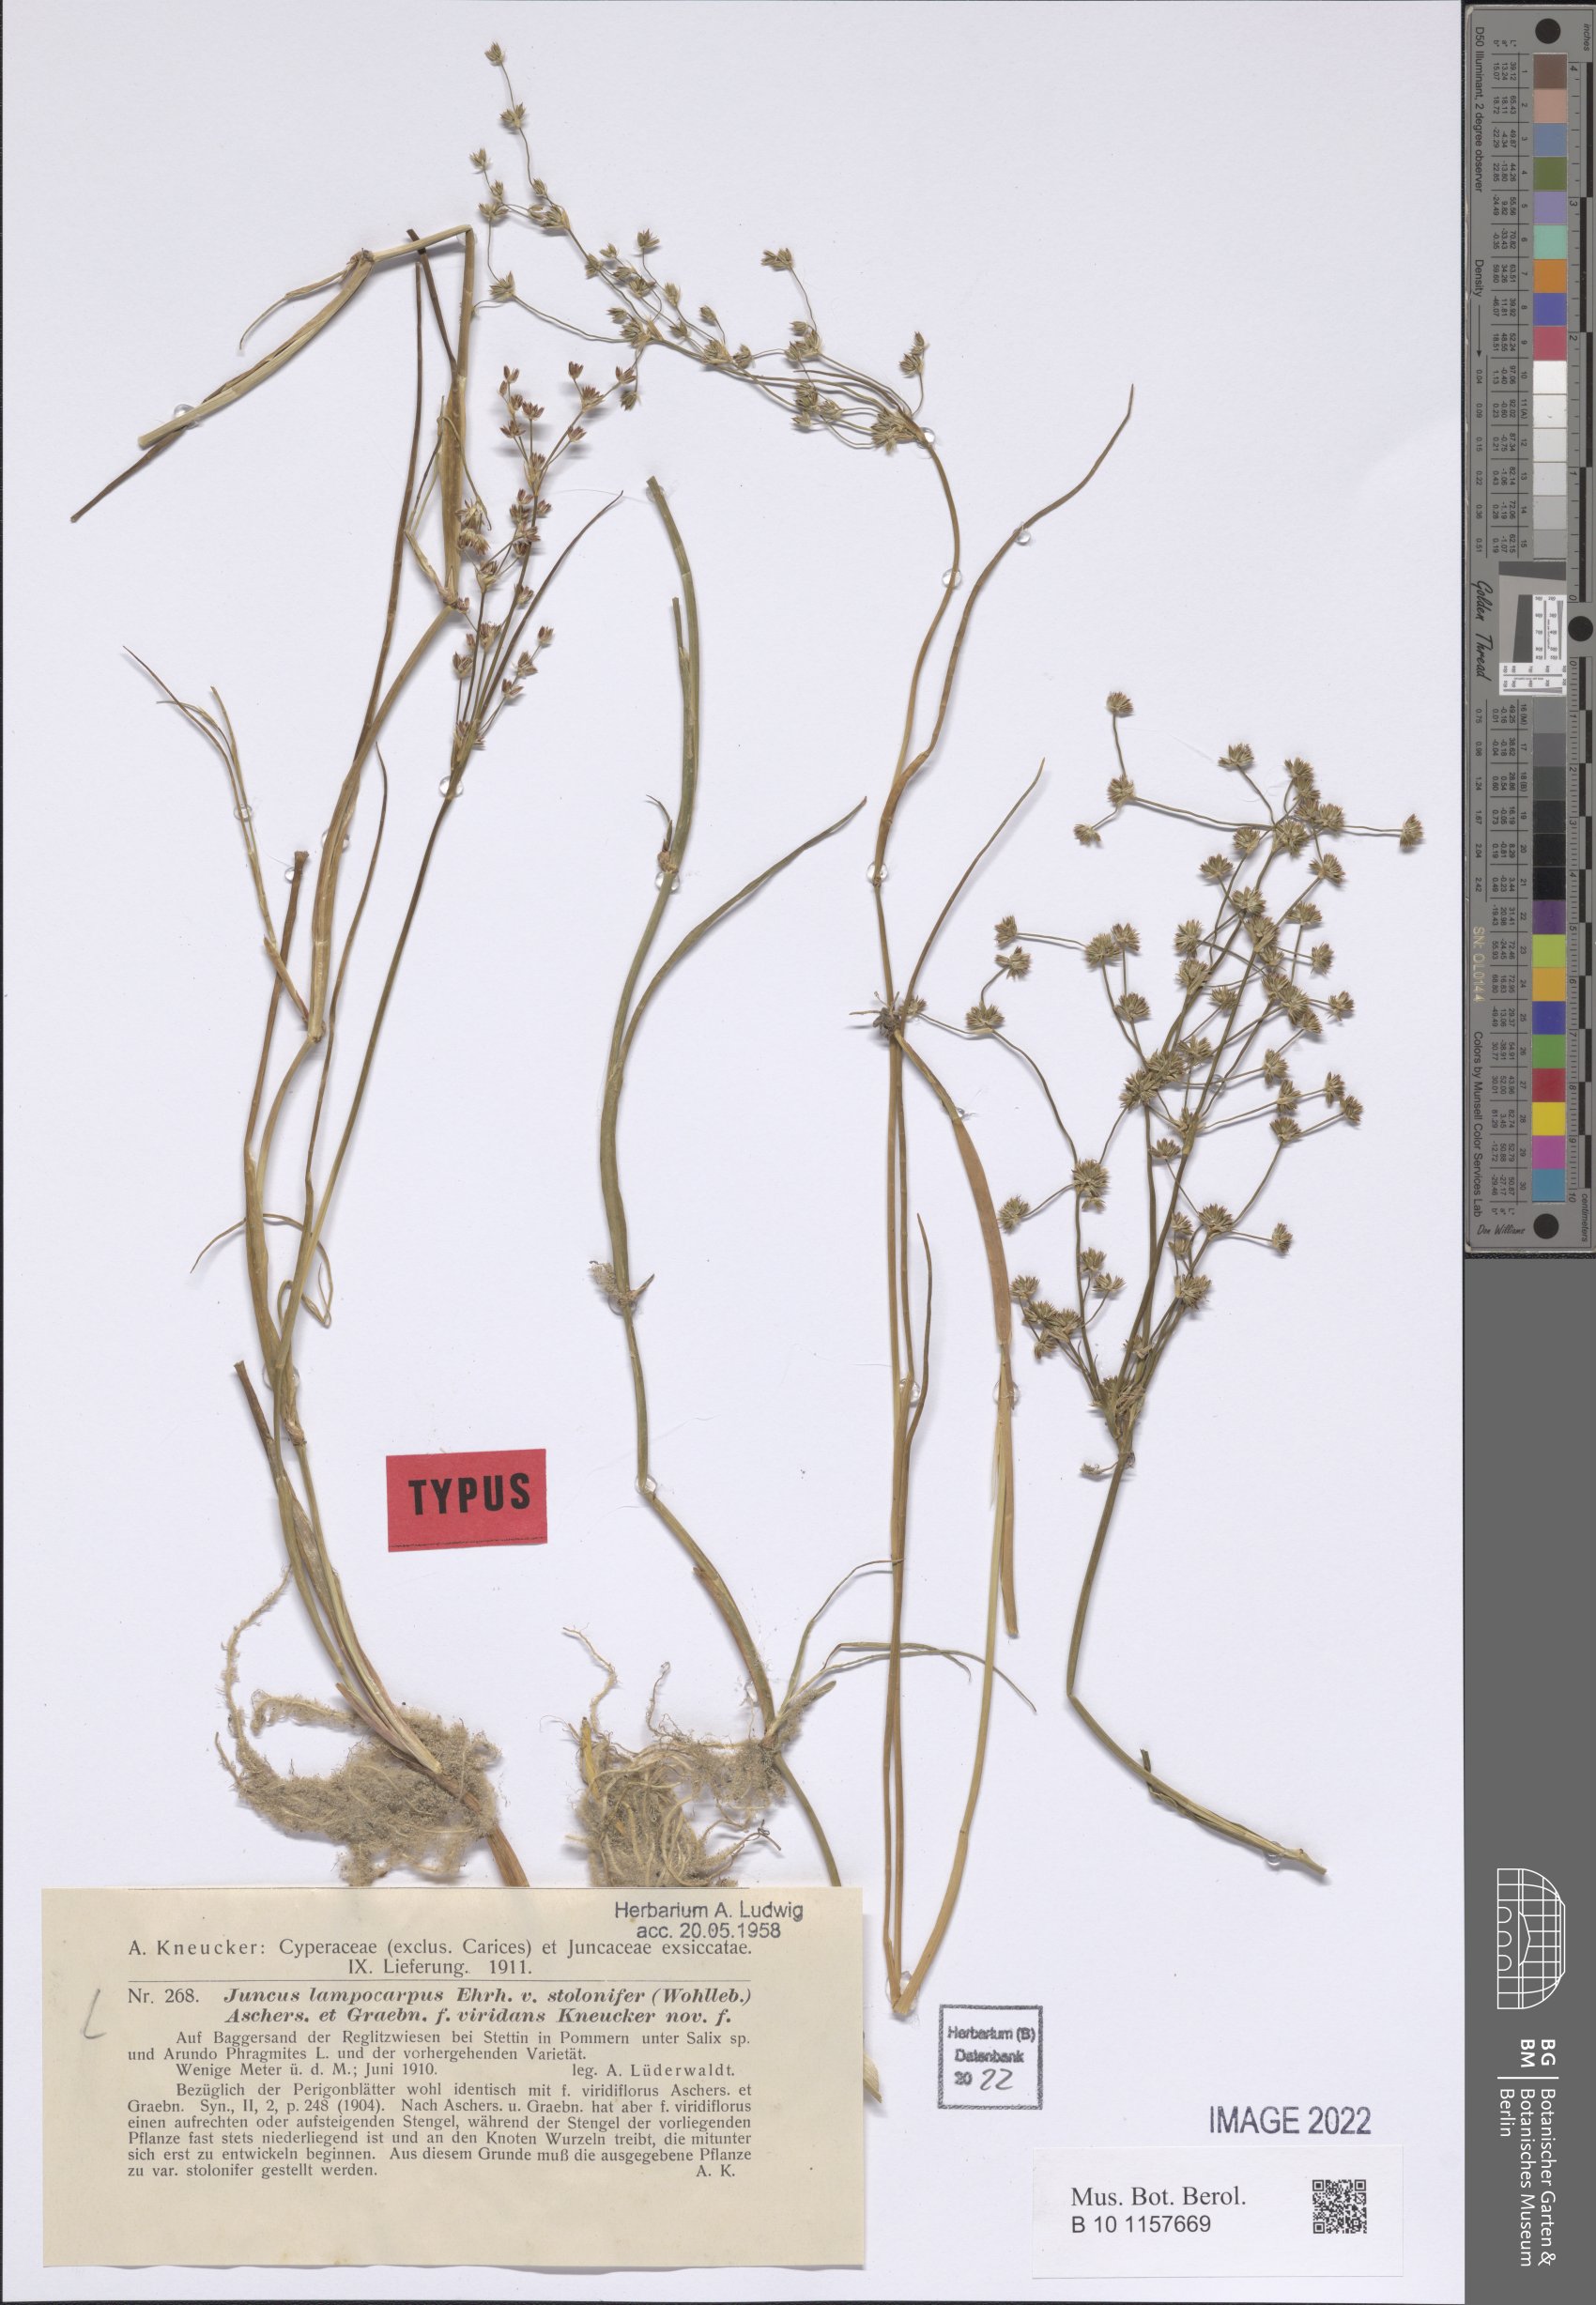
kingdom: Plantae
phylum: Tracheophyta
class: Liliopsida
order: Poales
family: Juncaceae
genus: Juncus
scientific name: Juncus articulatus
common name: Jointed rush
